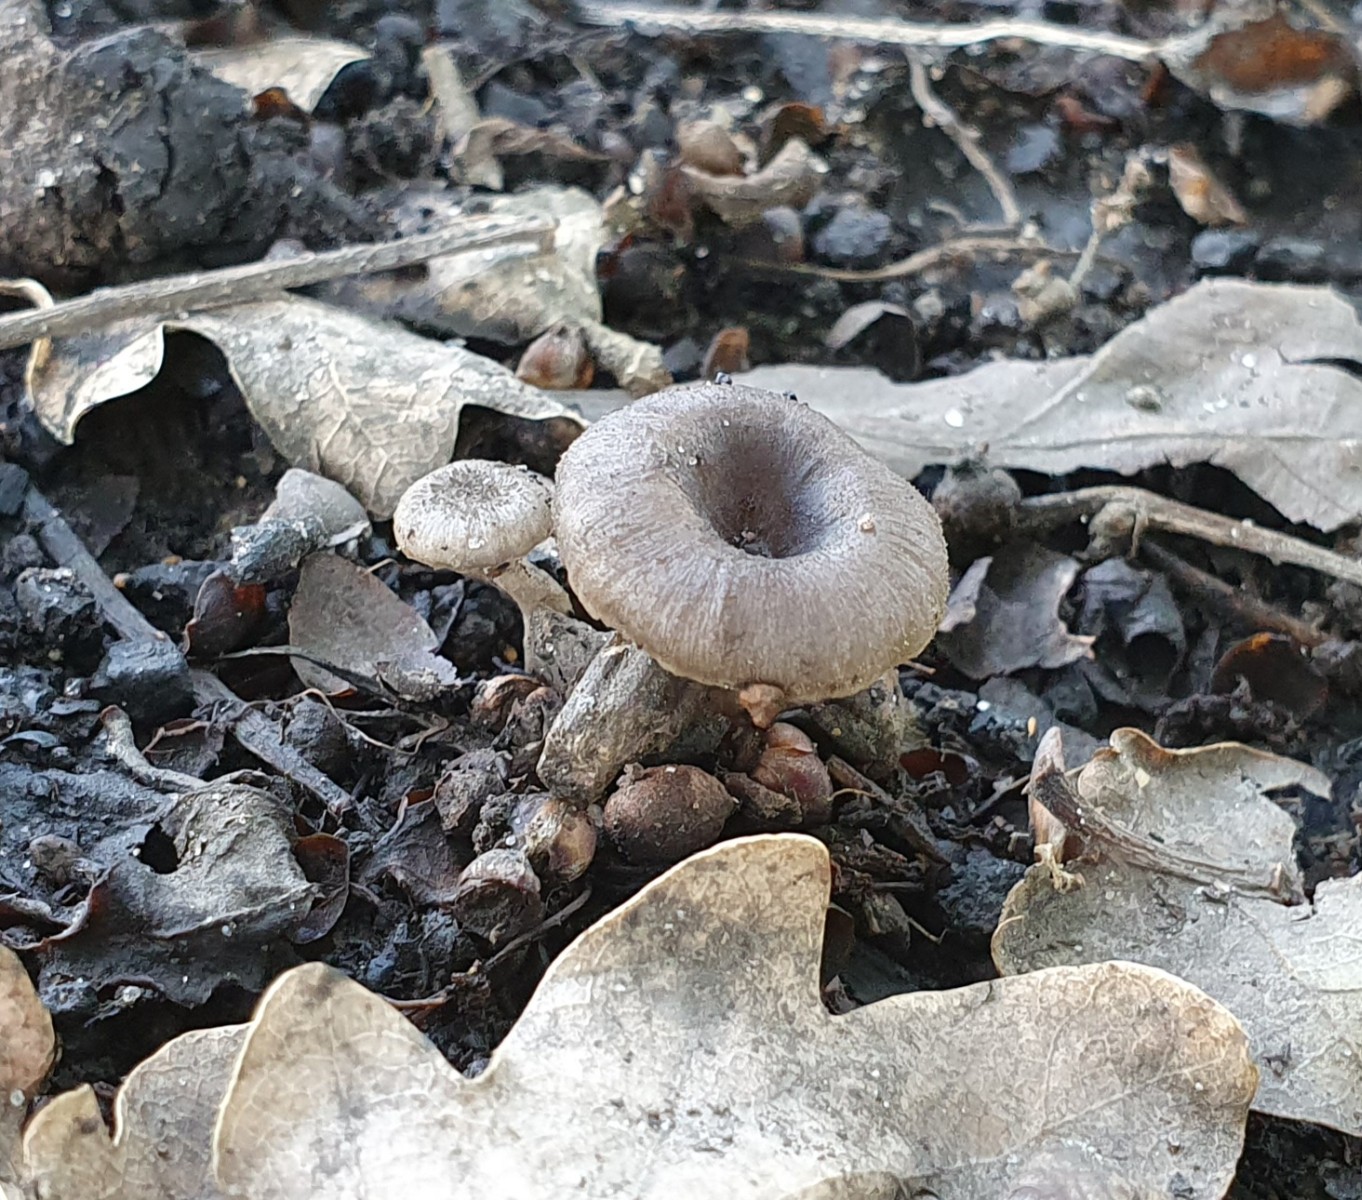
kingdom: Fungi
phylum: Basidiomycota
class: Agaricomycetes
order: Polyporales
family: Polyporaceae
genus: Faerberia
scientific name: Faerberia carbonaria
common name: kulkantarel
